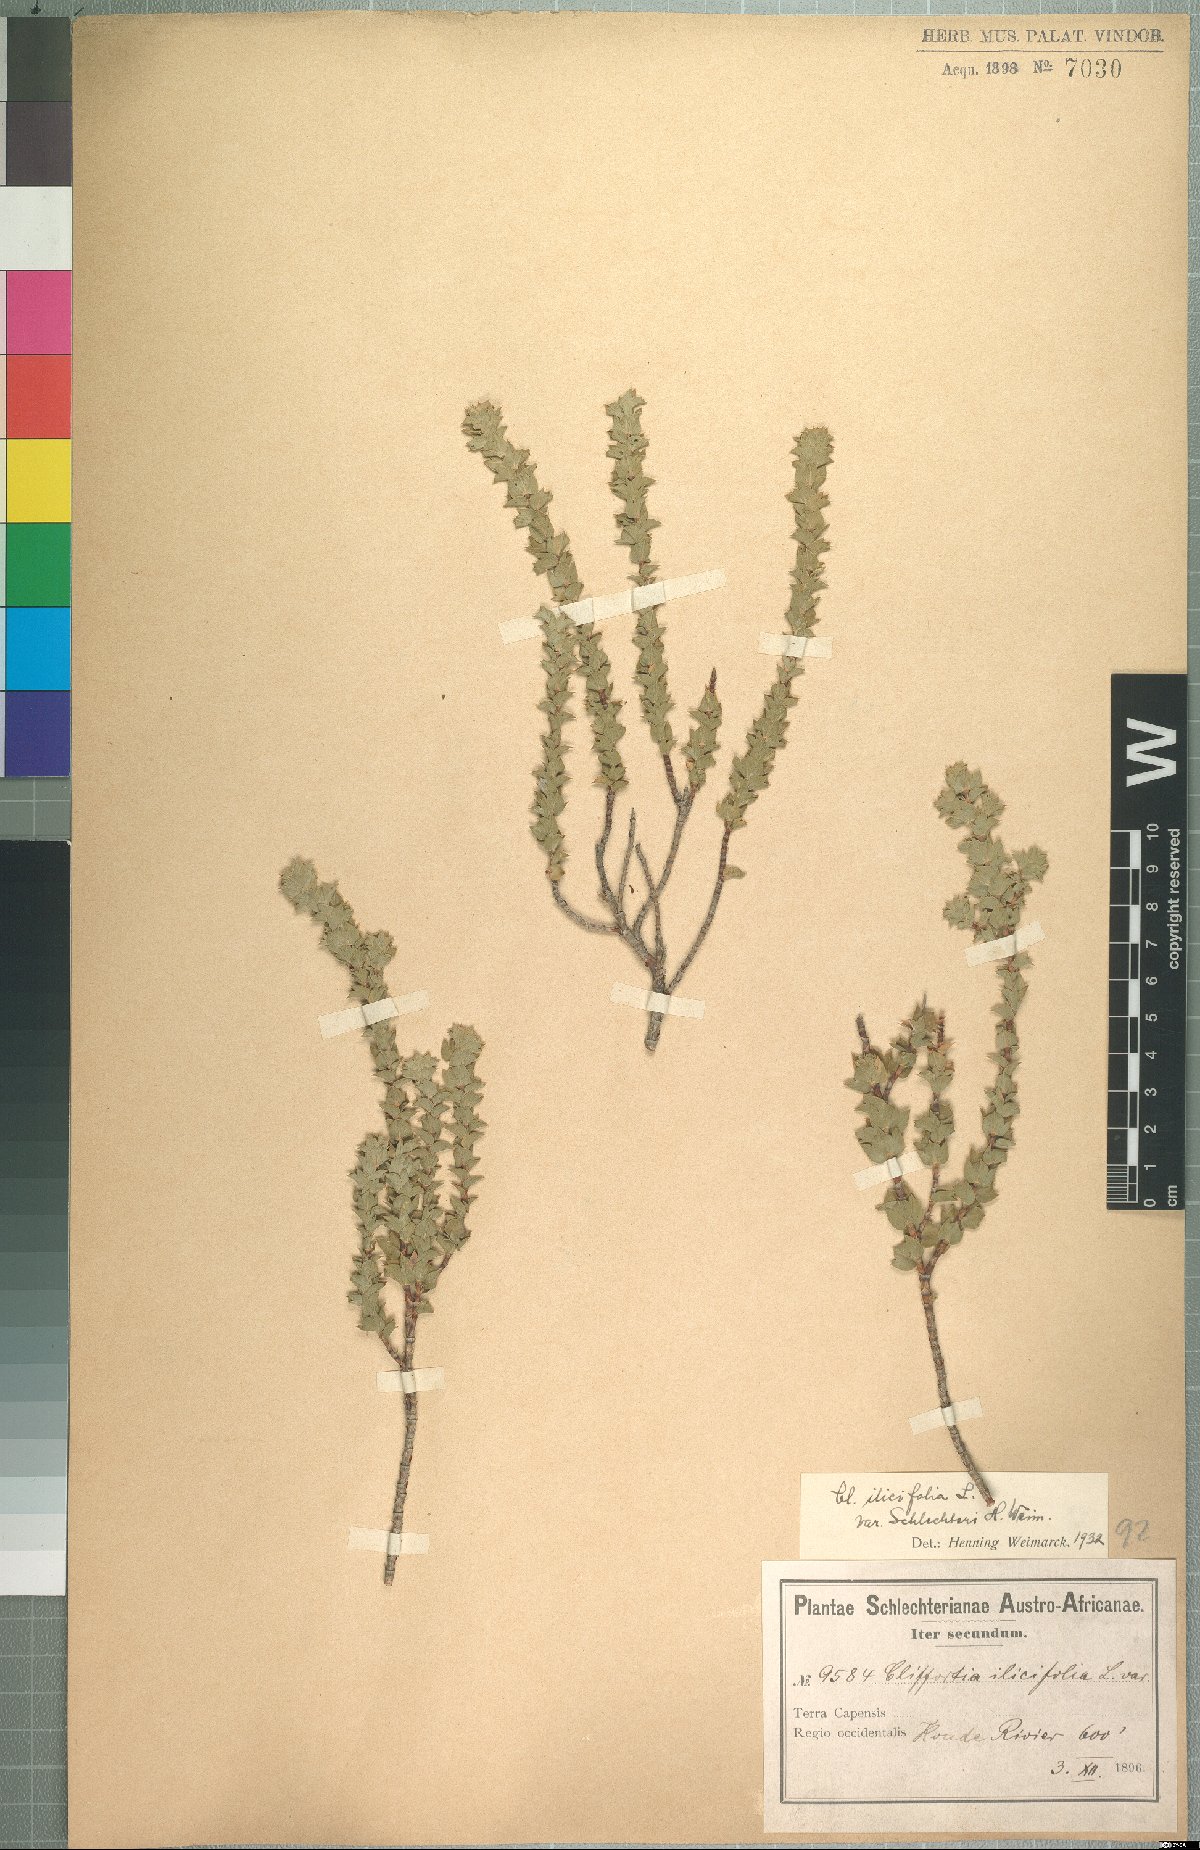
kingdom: Plantae
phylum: Tracheophyta
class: Magnoliopsida
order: Rosales
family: Rosaceae
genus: Cliffortia
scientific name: Cliffortia schlechteri
